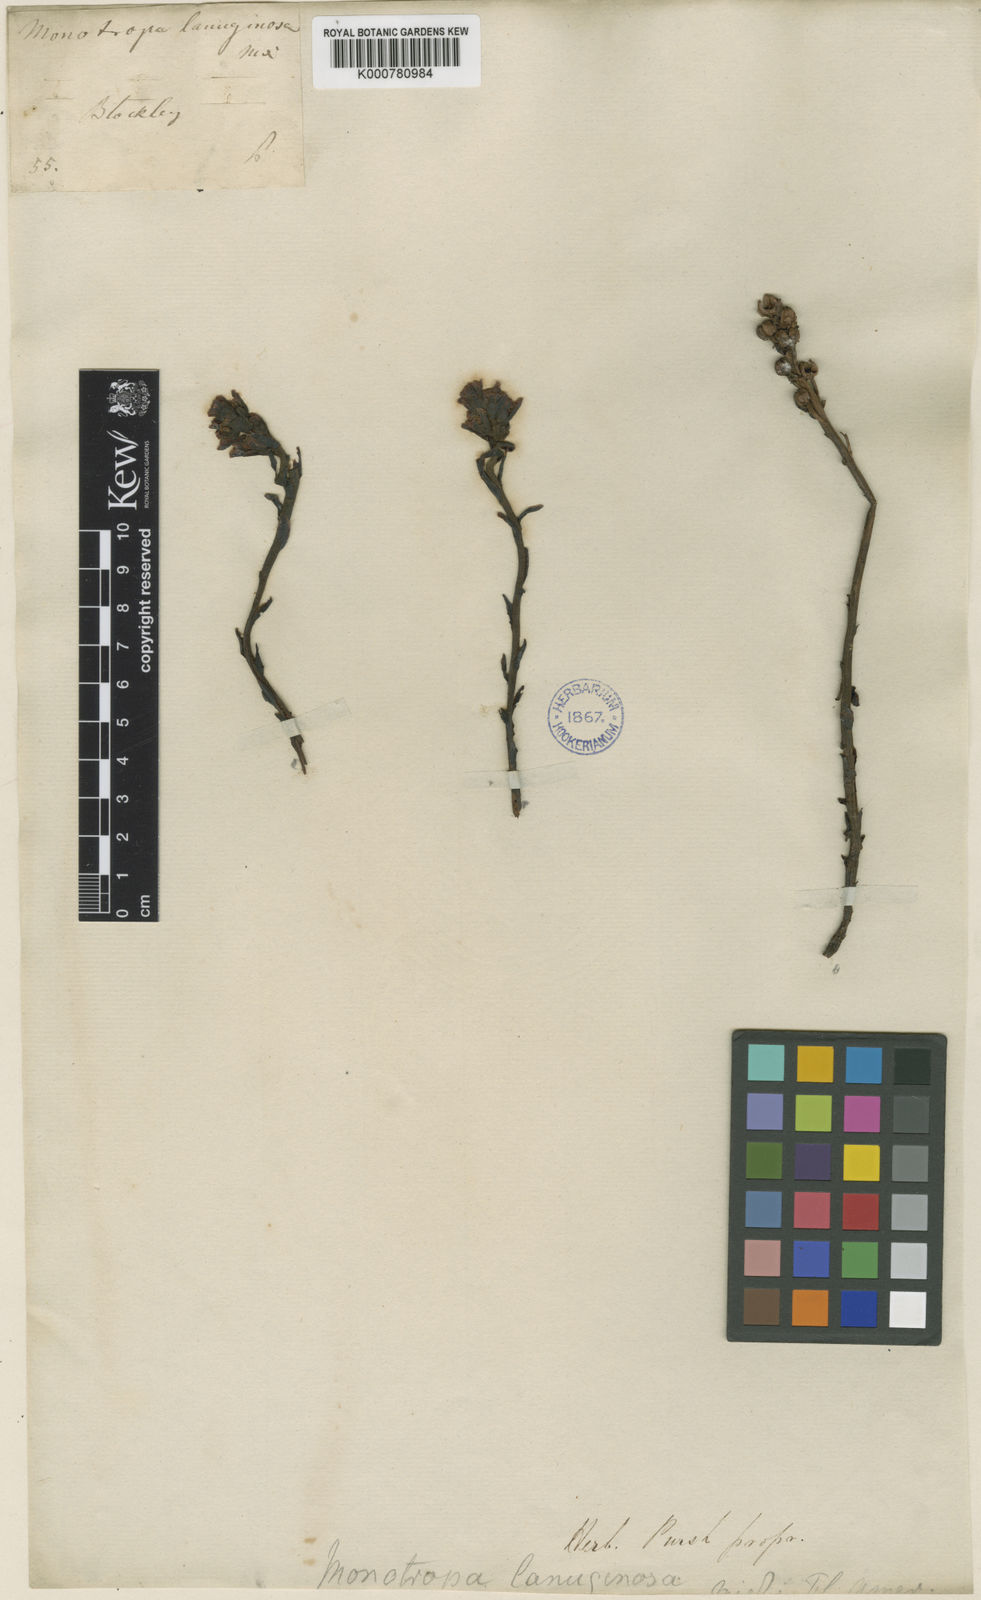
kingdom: Plantae
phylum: Tracheophyta
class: Magnoliopsida
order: Ericales
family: Ericaceae
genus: Hypopitys
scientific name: Hypopitys monotropa
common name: Yellow bird's-nest
